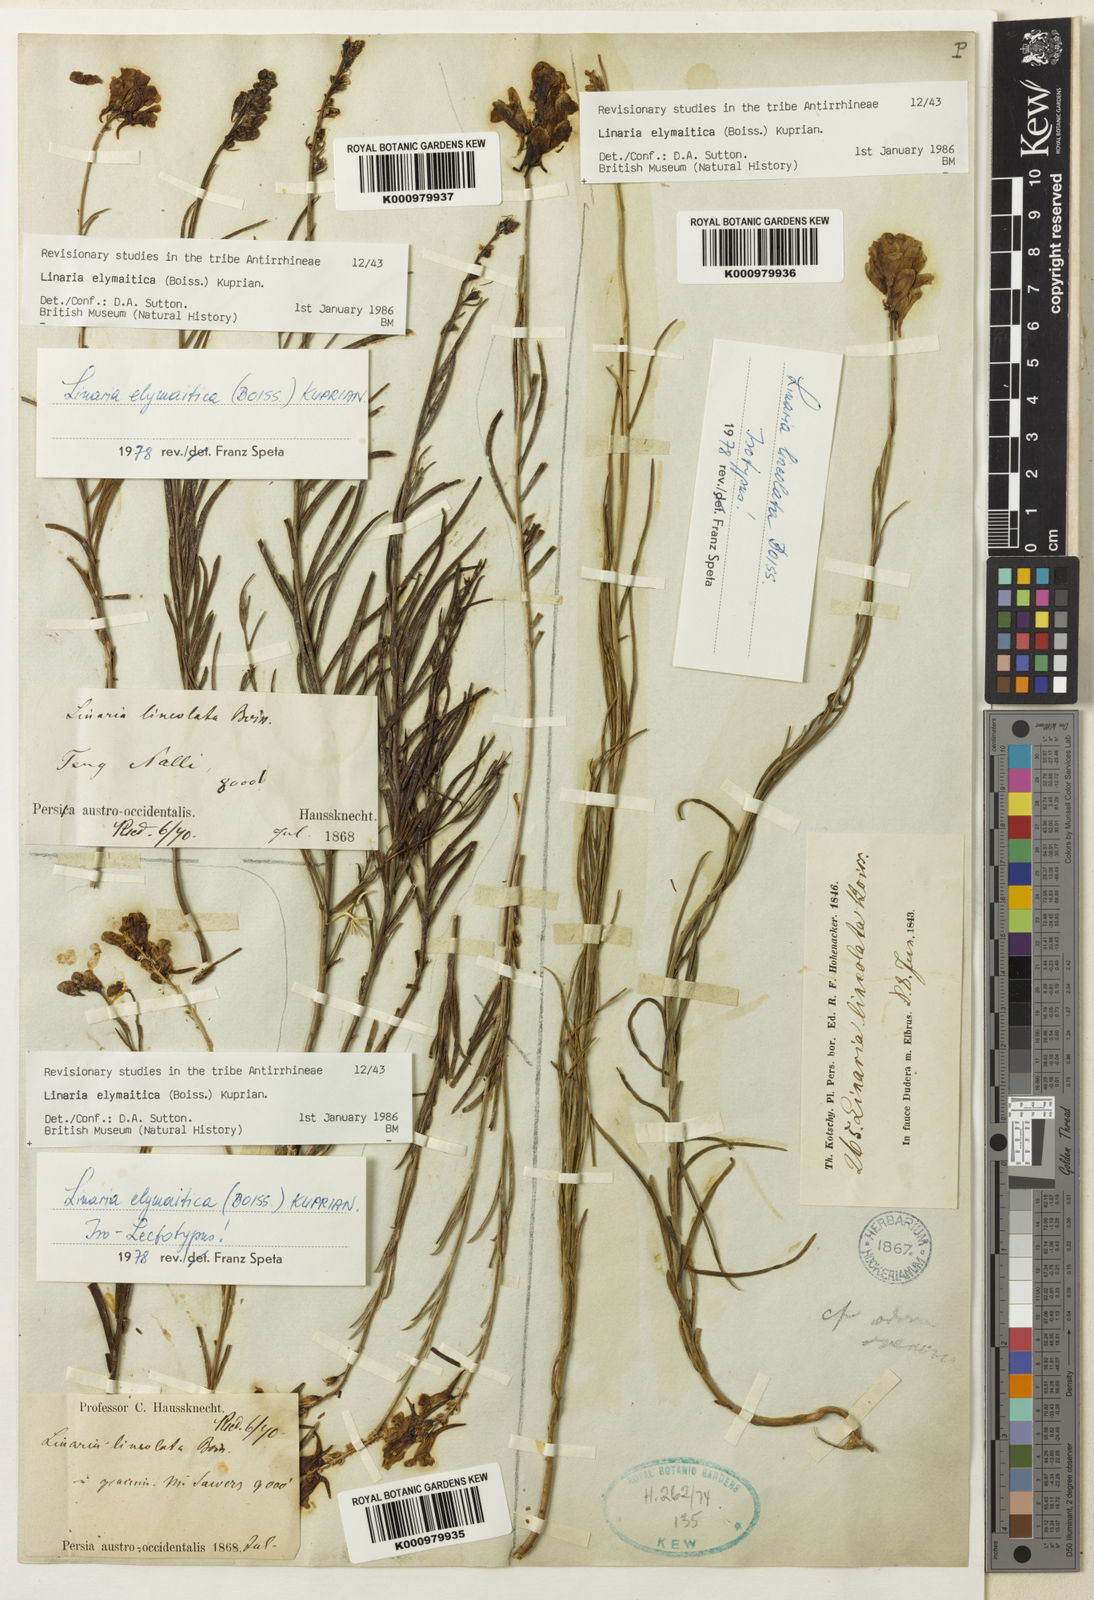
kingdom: Plantae
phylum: Tracheophyta
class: Magnoliopsida
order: Lamiales
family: Plantaginaceae
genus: Linaria
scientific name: Linaria elymaitica
